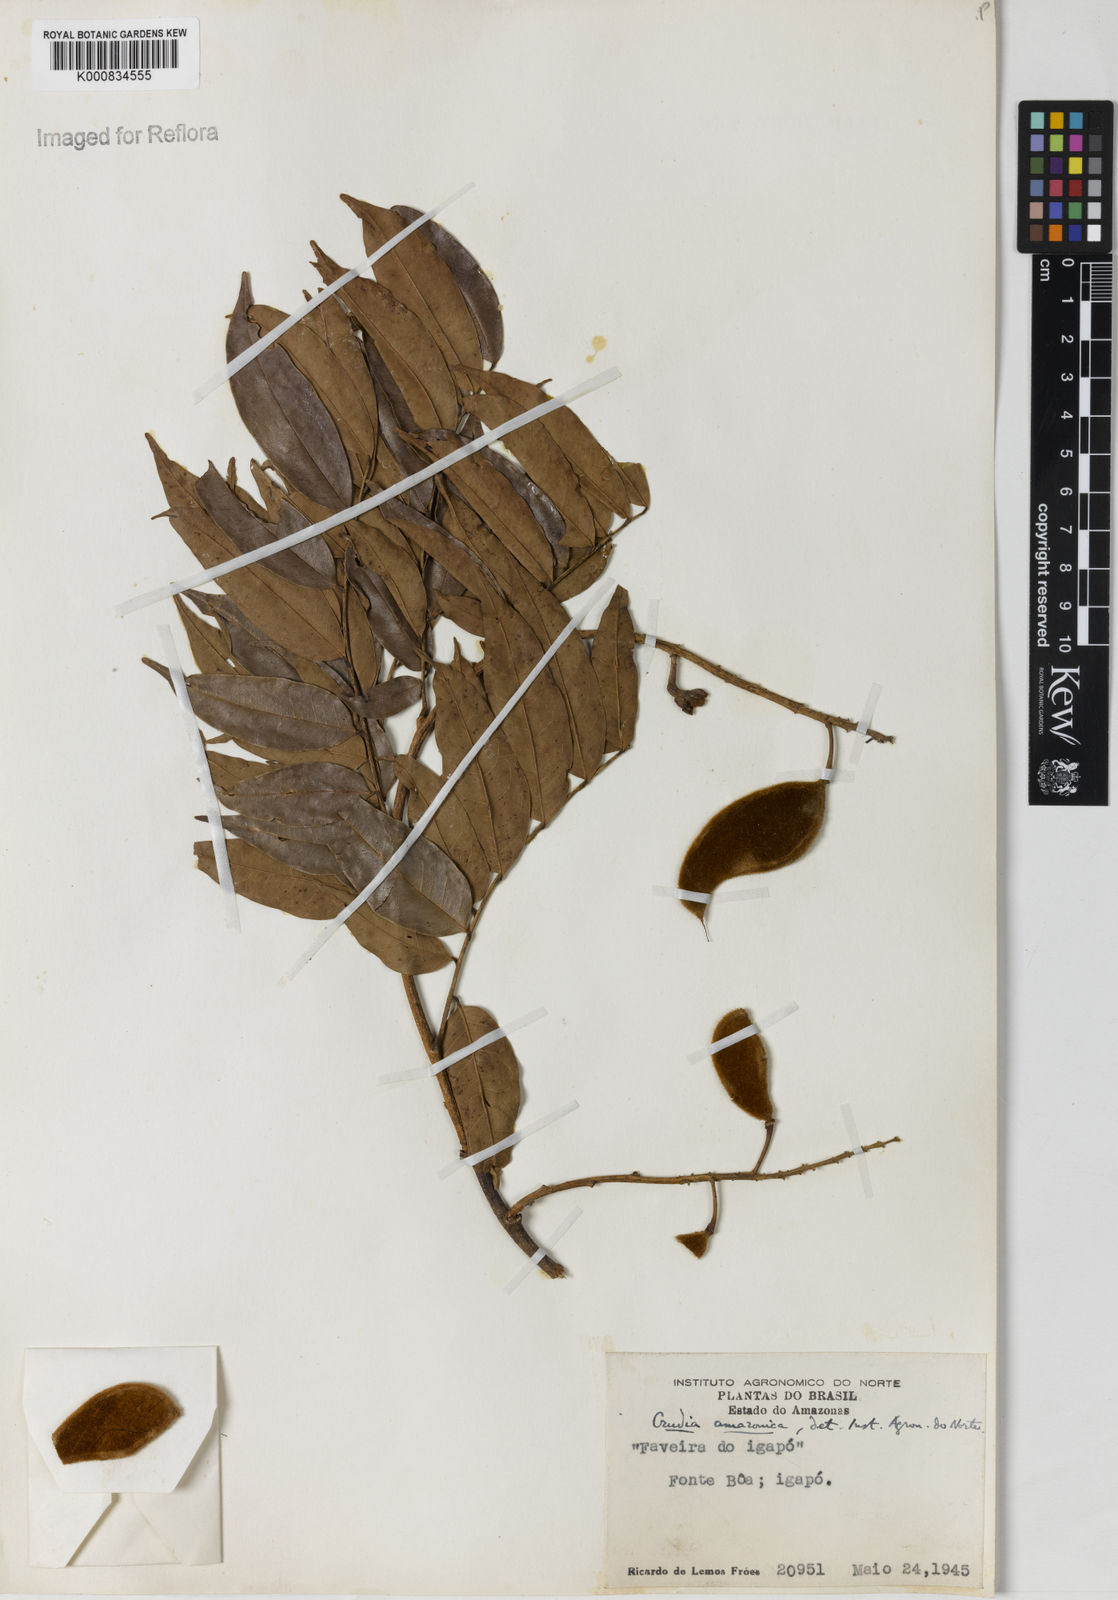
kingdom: Plantae
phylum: Tracheophyta
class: Magnoliopsida
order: Fabales
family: Fabaceae
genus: Crudia
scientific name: Crudia
